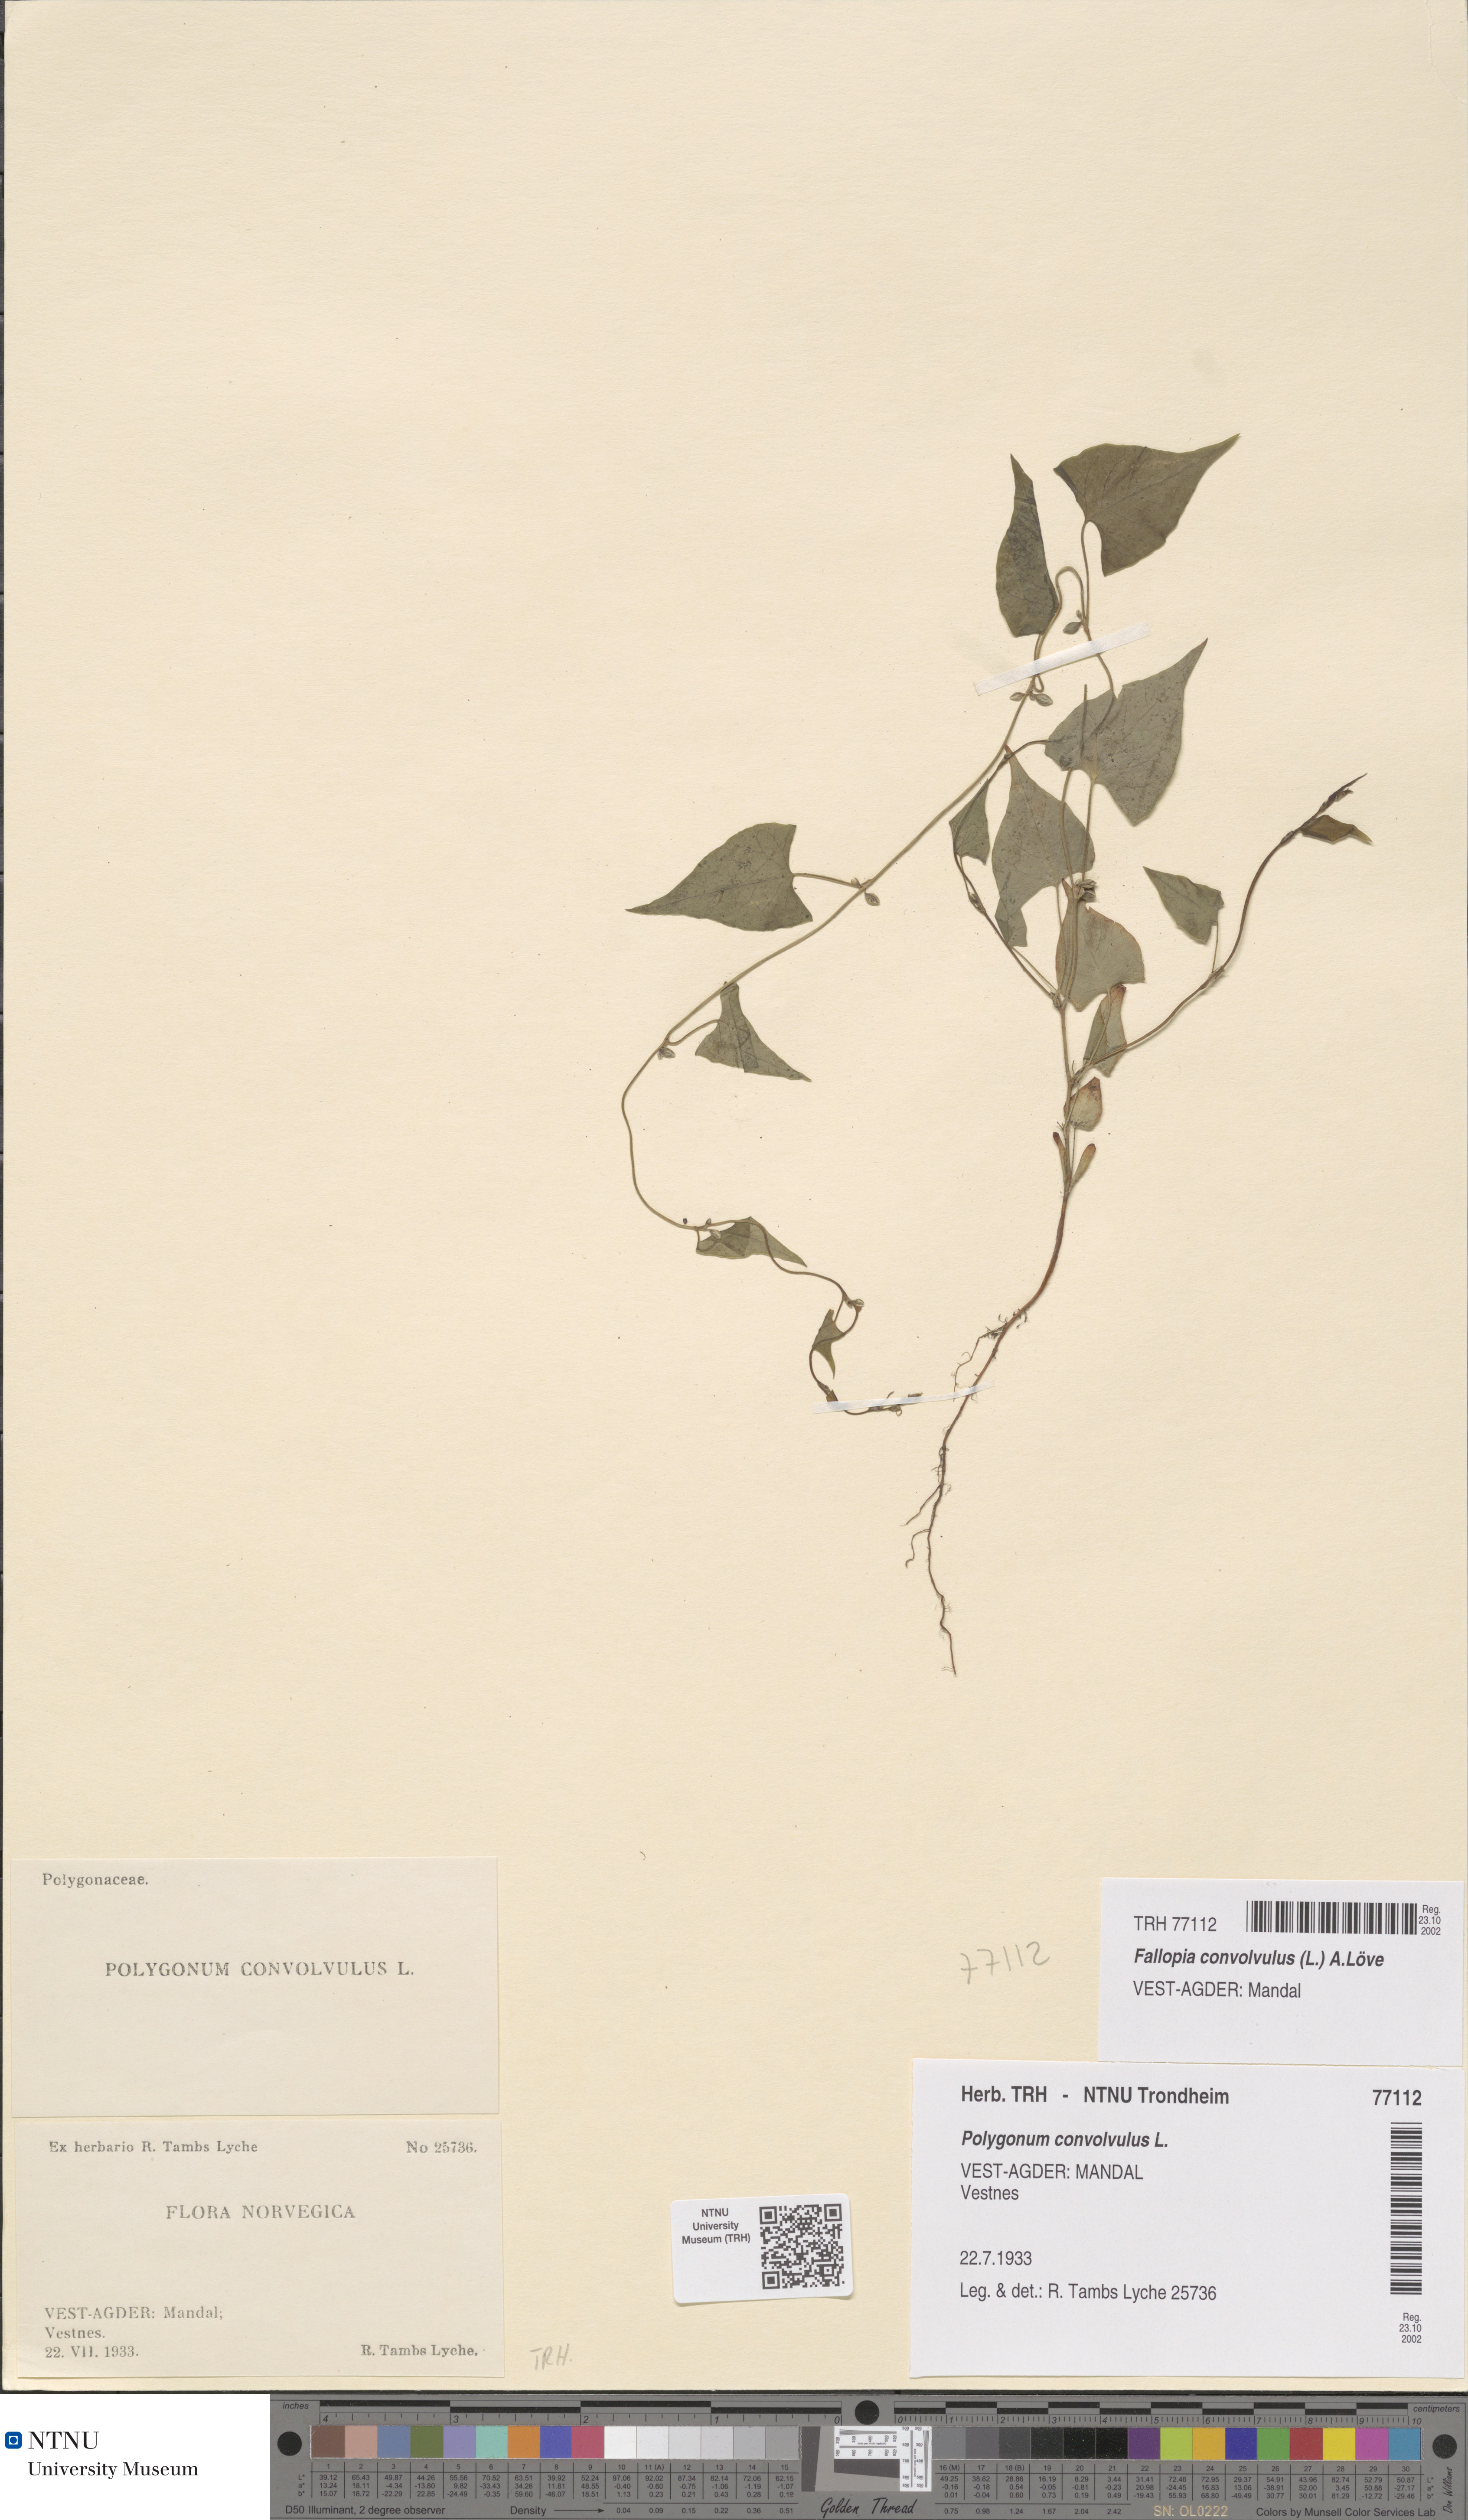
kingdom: Plantae
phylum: Tracheophyta
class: Magnoliopsida
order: Caryophyllales
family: Polygonaceae
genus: Fallopia
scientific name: Fallopia convolvulus
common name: Black bindweed
